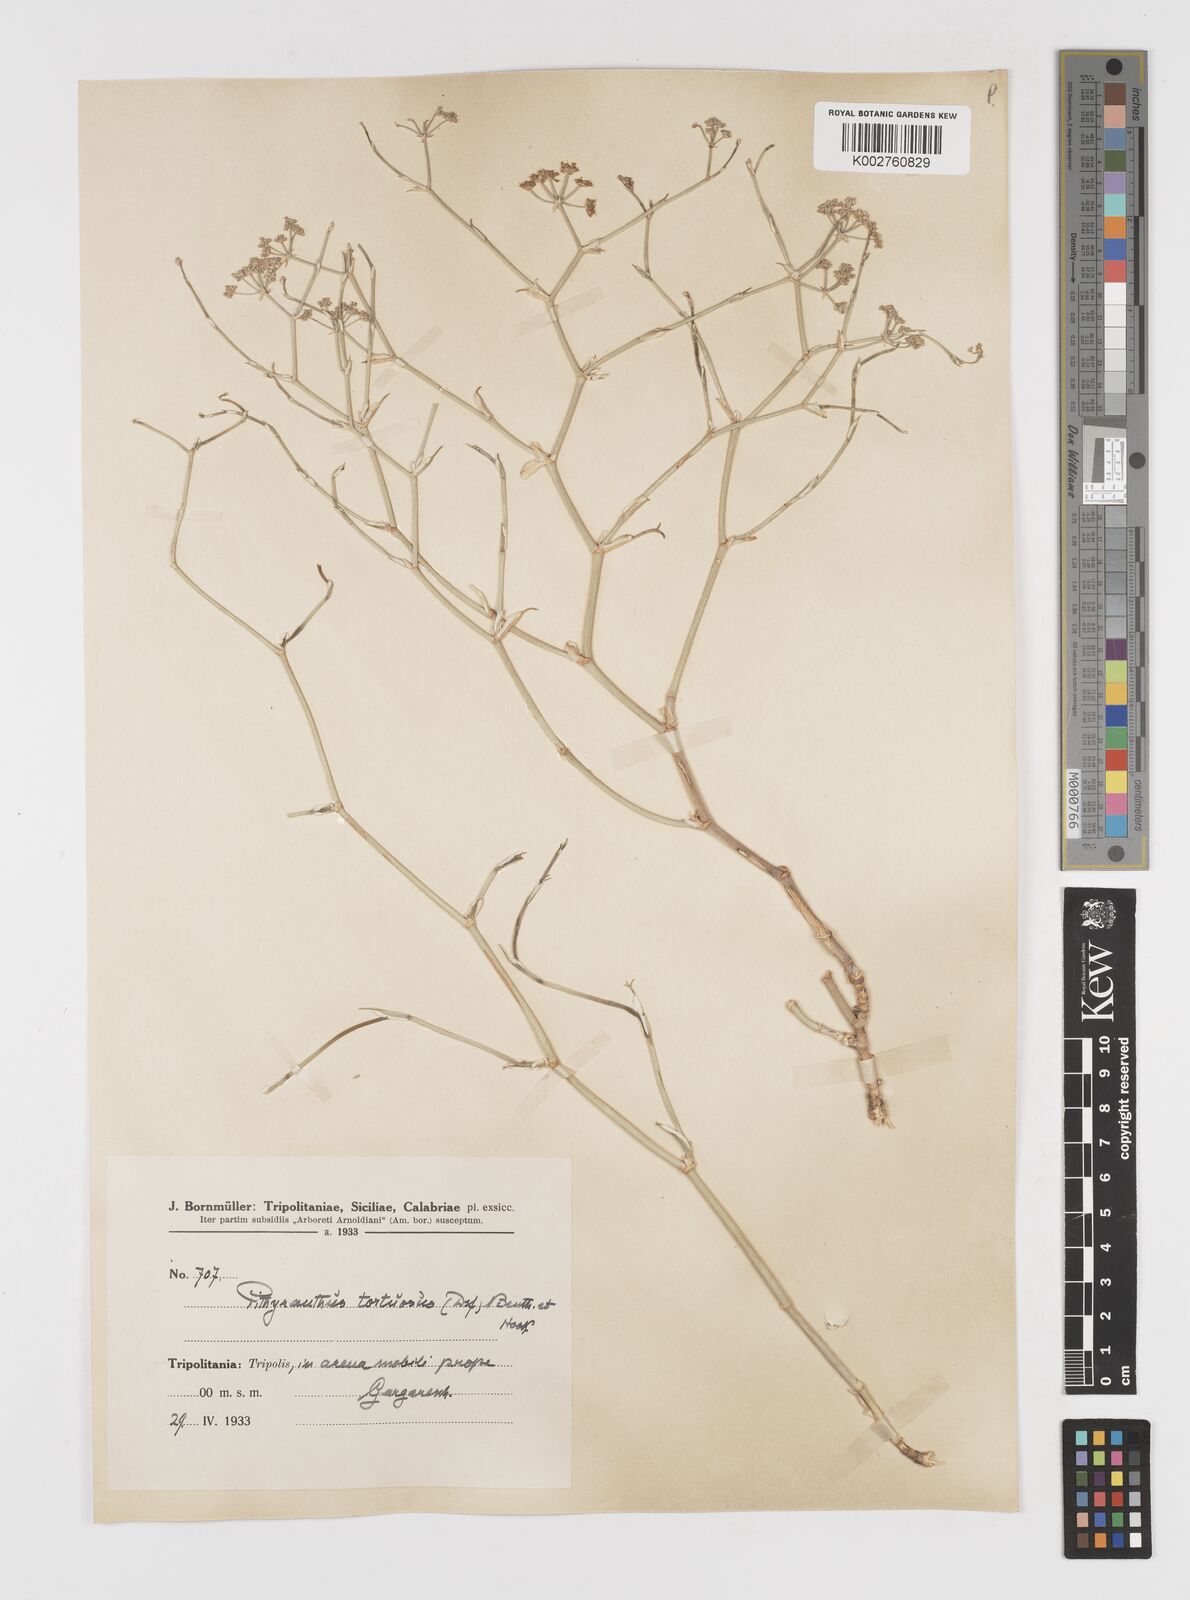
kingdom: Plantae
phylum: Tracheophyta
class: Magnoliopsida
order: Apiales
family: Apiaceae
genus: Deverra
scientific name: Deverra tortuosa
